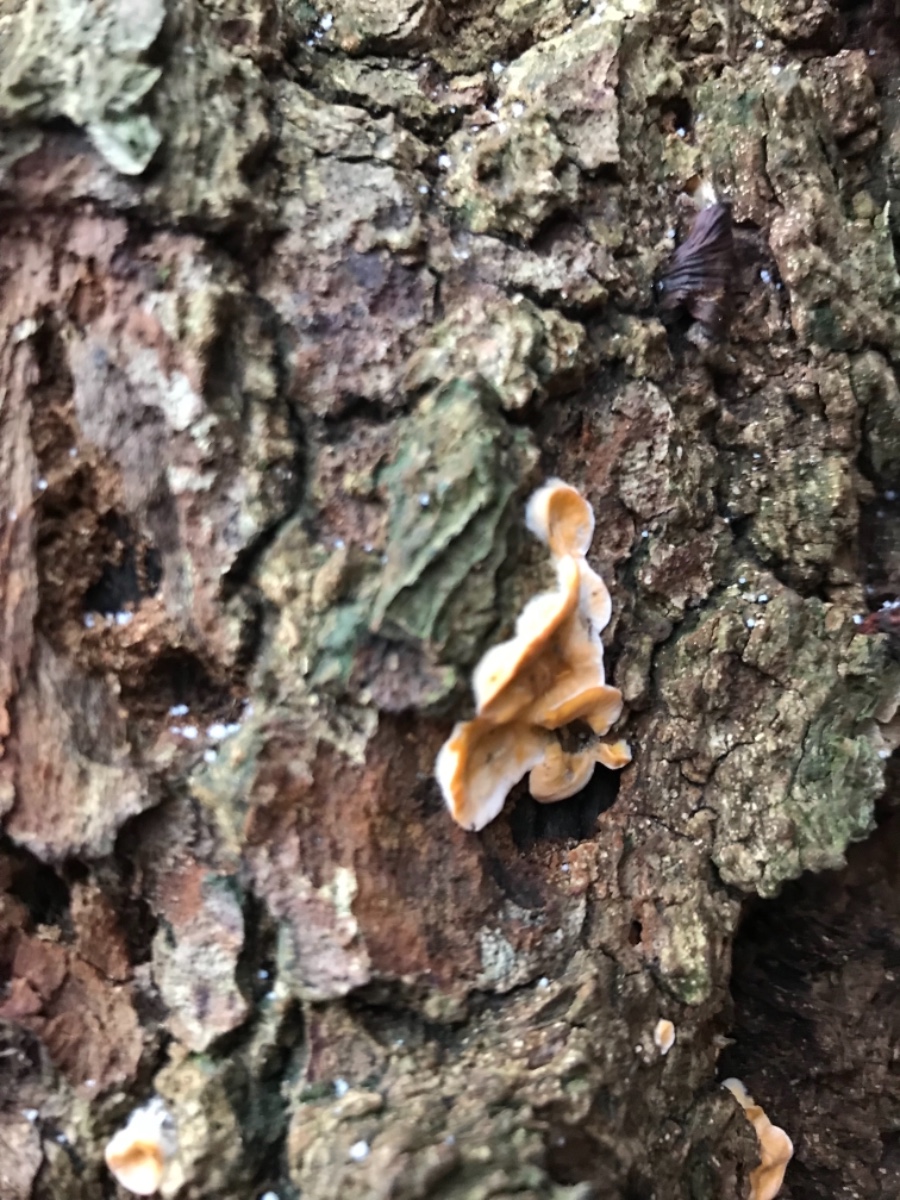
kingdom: Fungi
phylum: Basidiomycota
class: Agaricomycetes
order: Russulales
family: Stereaceae
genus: Stereum
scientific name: Stereum hirsutum
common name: håret lædersvamp
